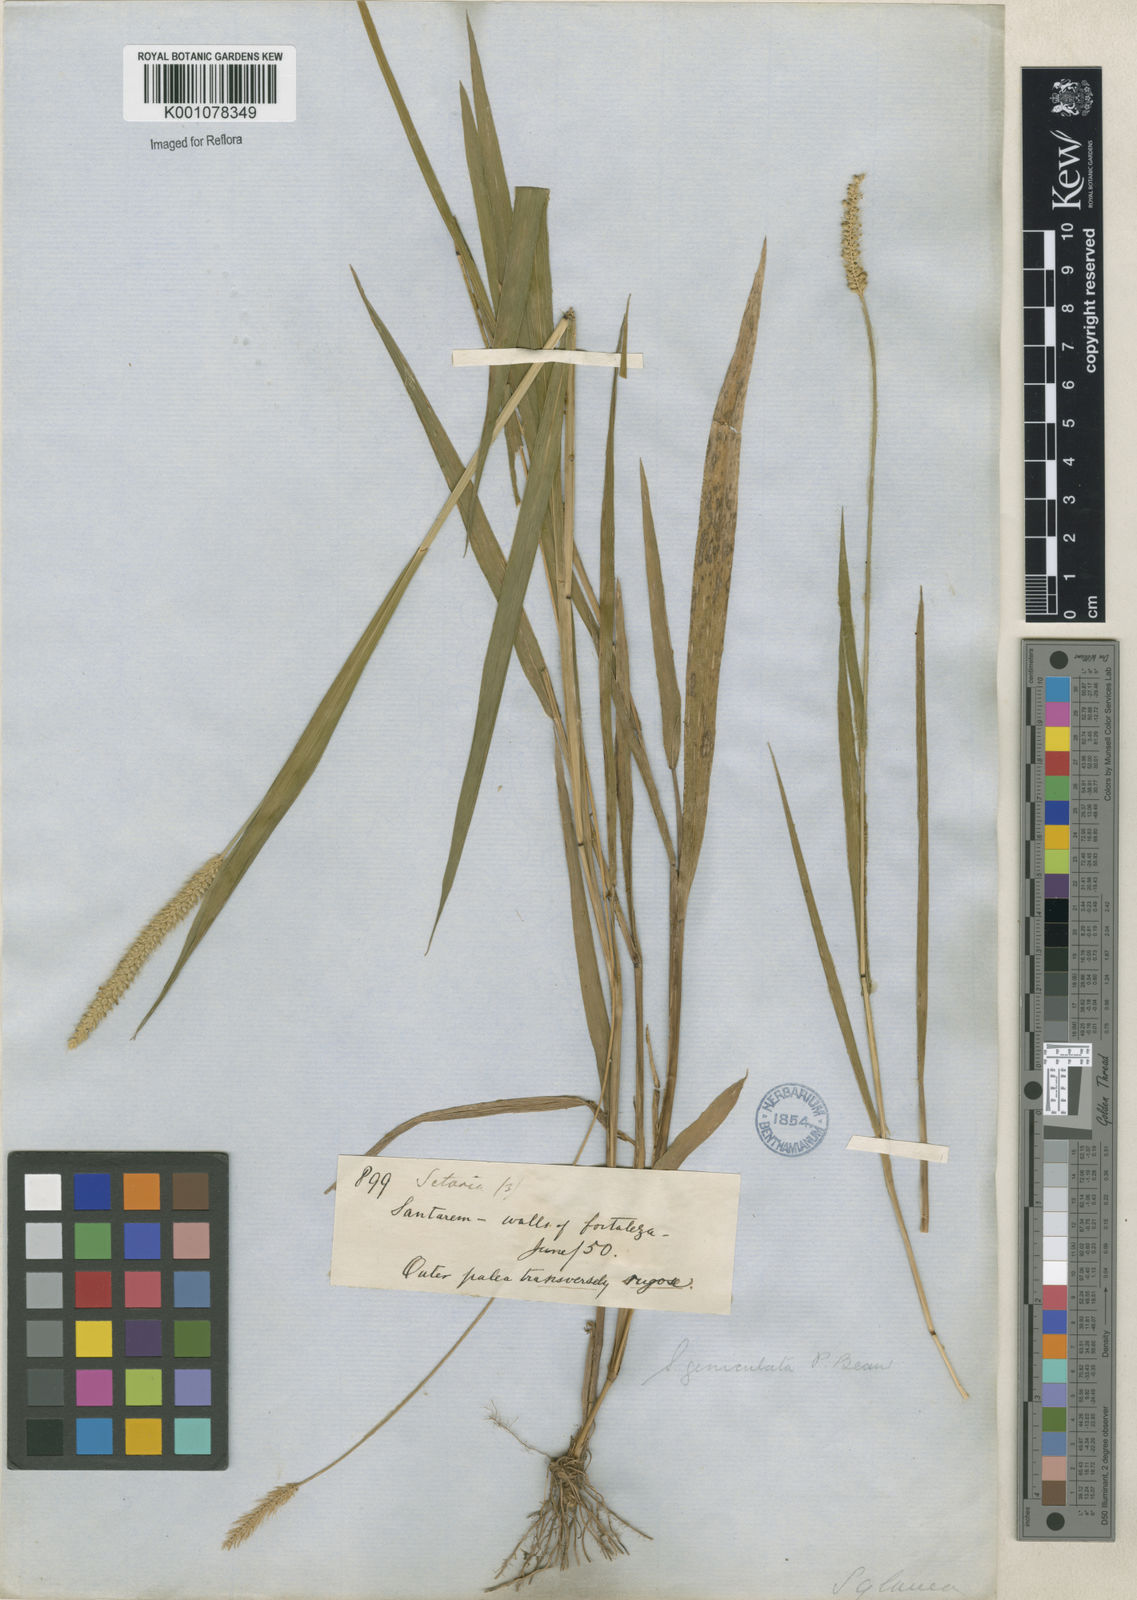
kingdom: Plantae
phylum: Tracheophyta
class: Liliopsida
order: Poales
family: Poaceae
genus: Setaria
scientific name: Setaria parviflora
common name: Knotroot bristle-grass
